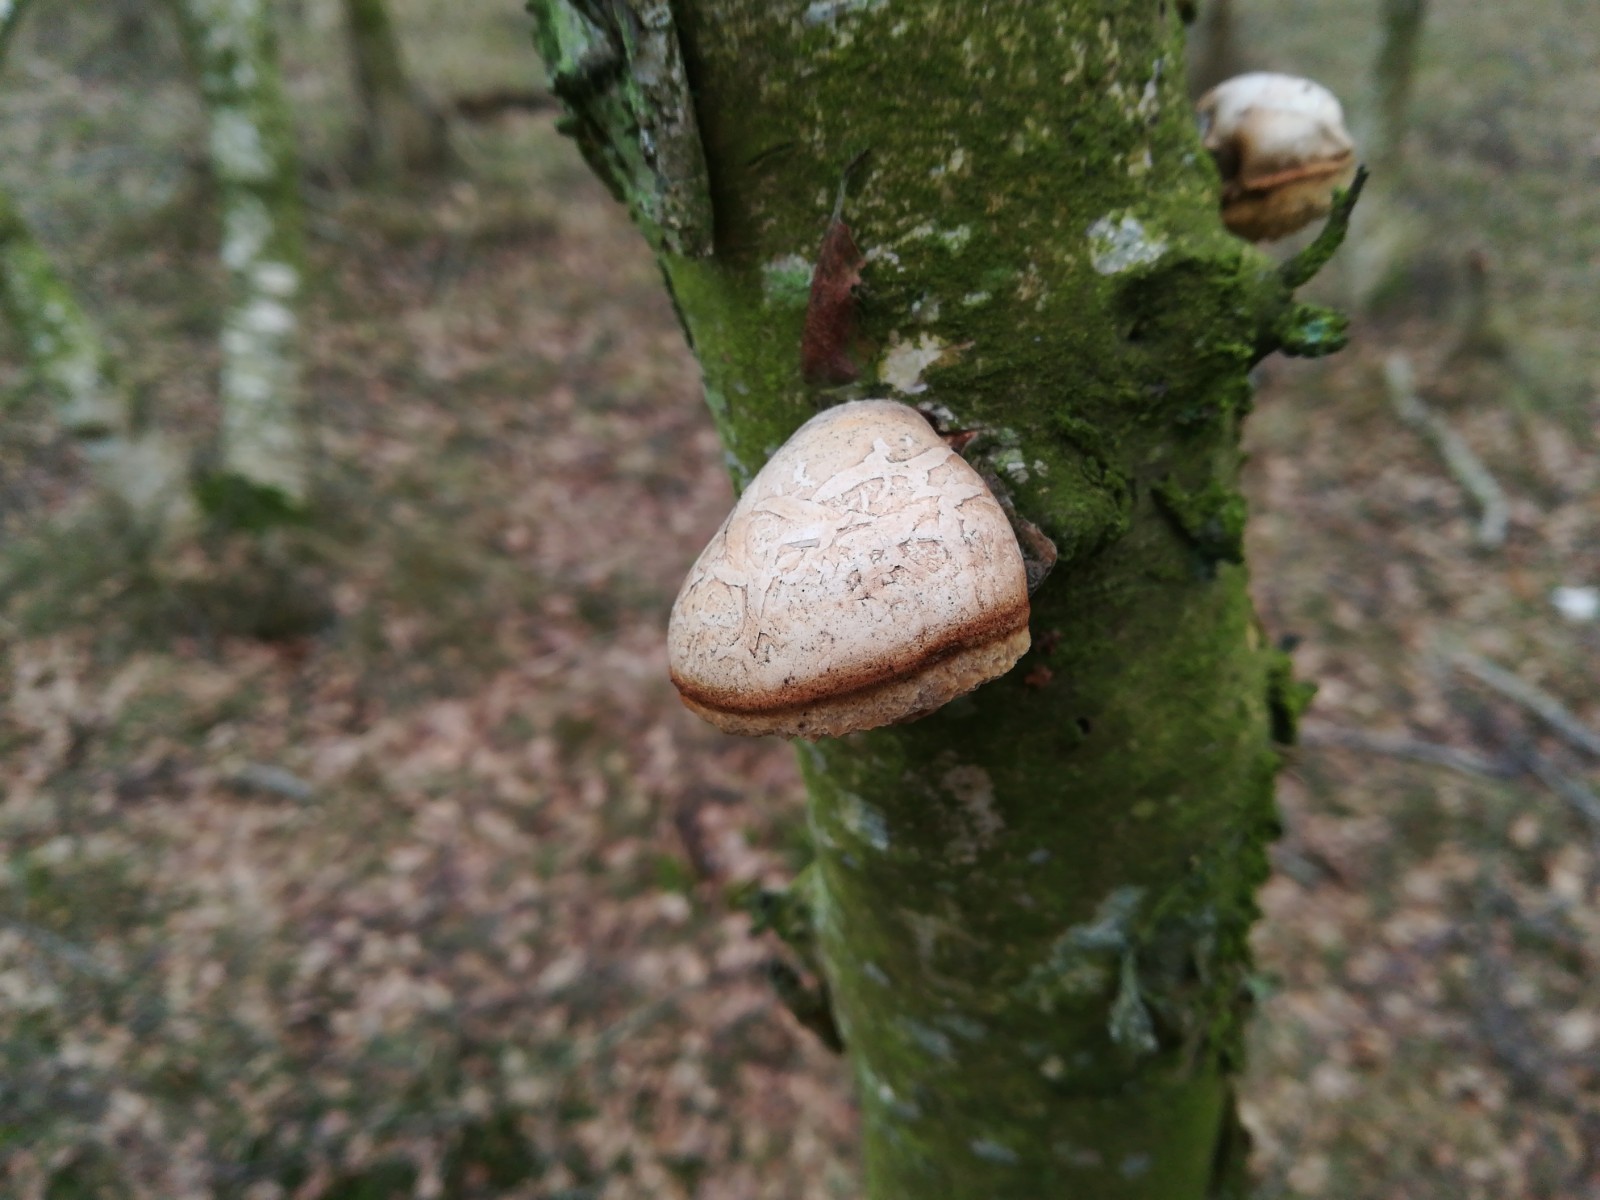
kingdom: Fungi
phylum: Basidiomycota
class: Agaricomycetes
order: Polyporales
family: Fomitopsidaceae
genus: Fomitopsis
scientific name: Fomitopsis betulina
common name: birkeporesvamp
